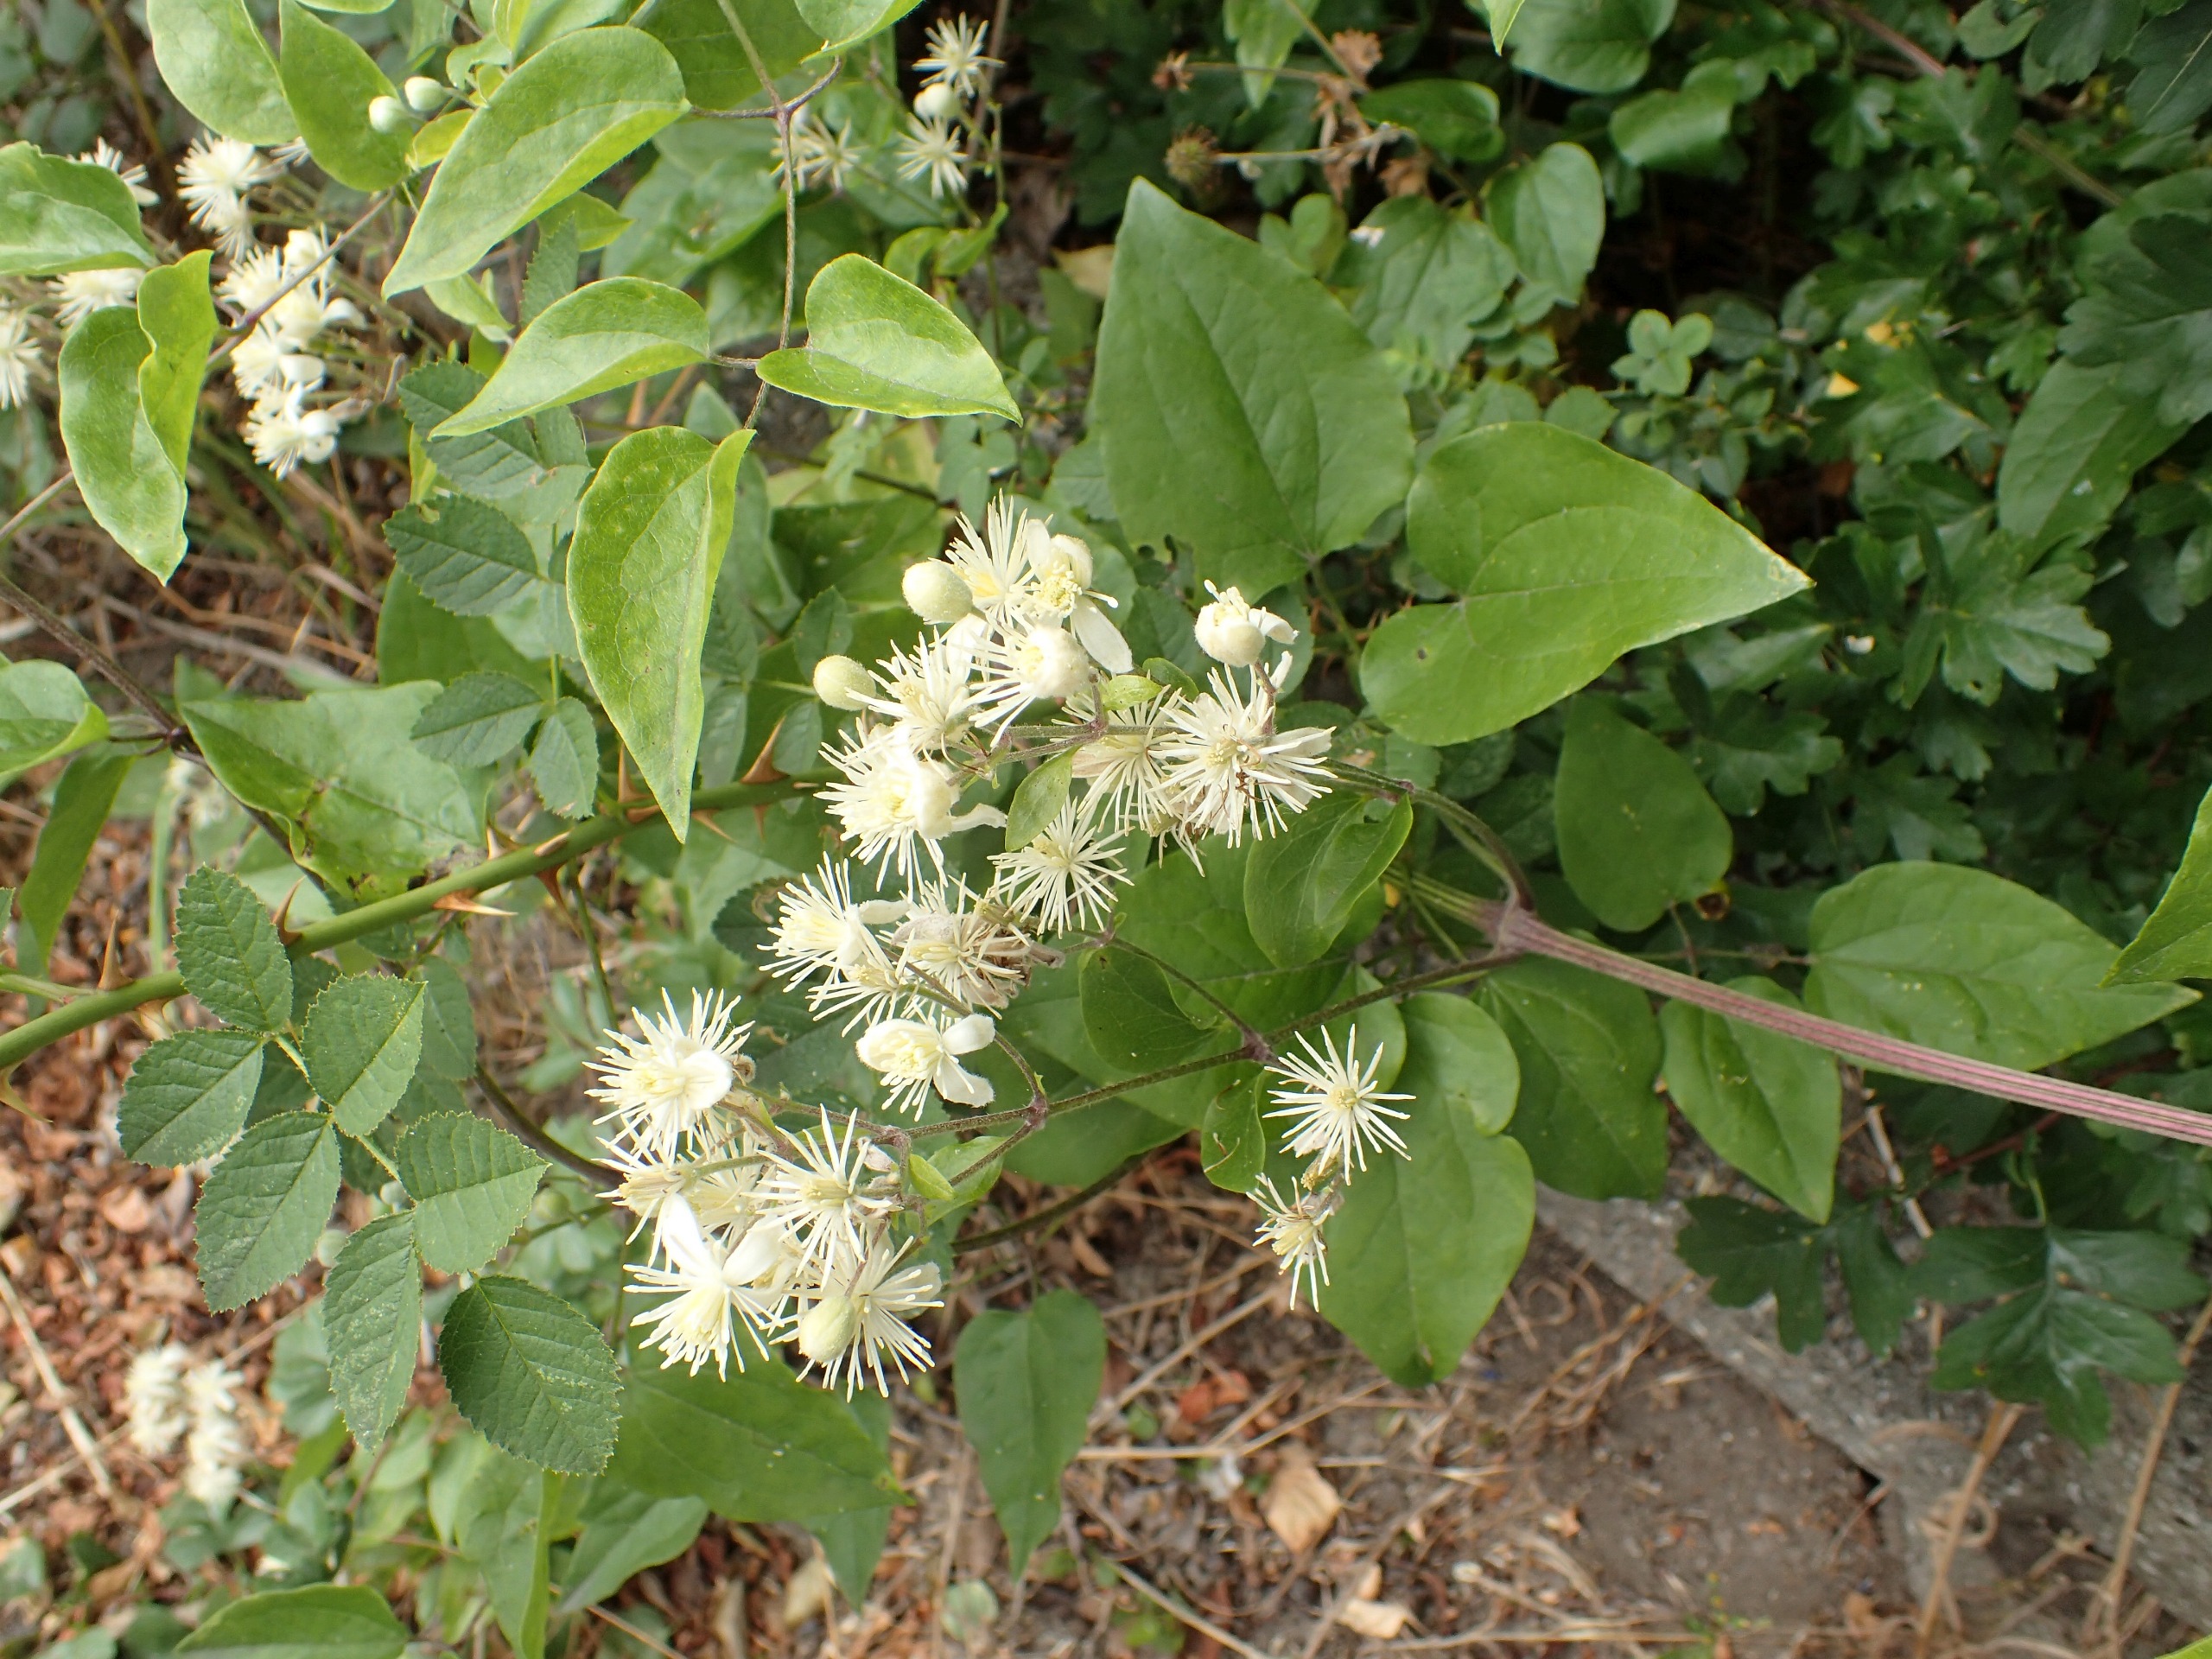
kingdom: Plantae
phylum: Tracheophyta
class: Magnoliopsida
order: Ranunculales
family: Ranunculaceae
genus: Clematis
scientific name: Clematis vitalba
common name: Skovranke
